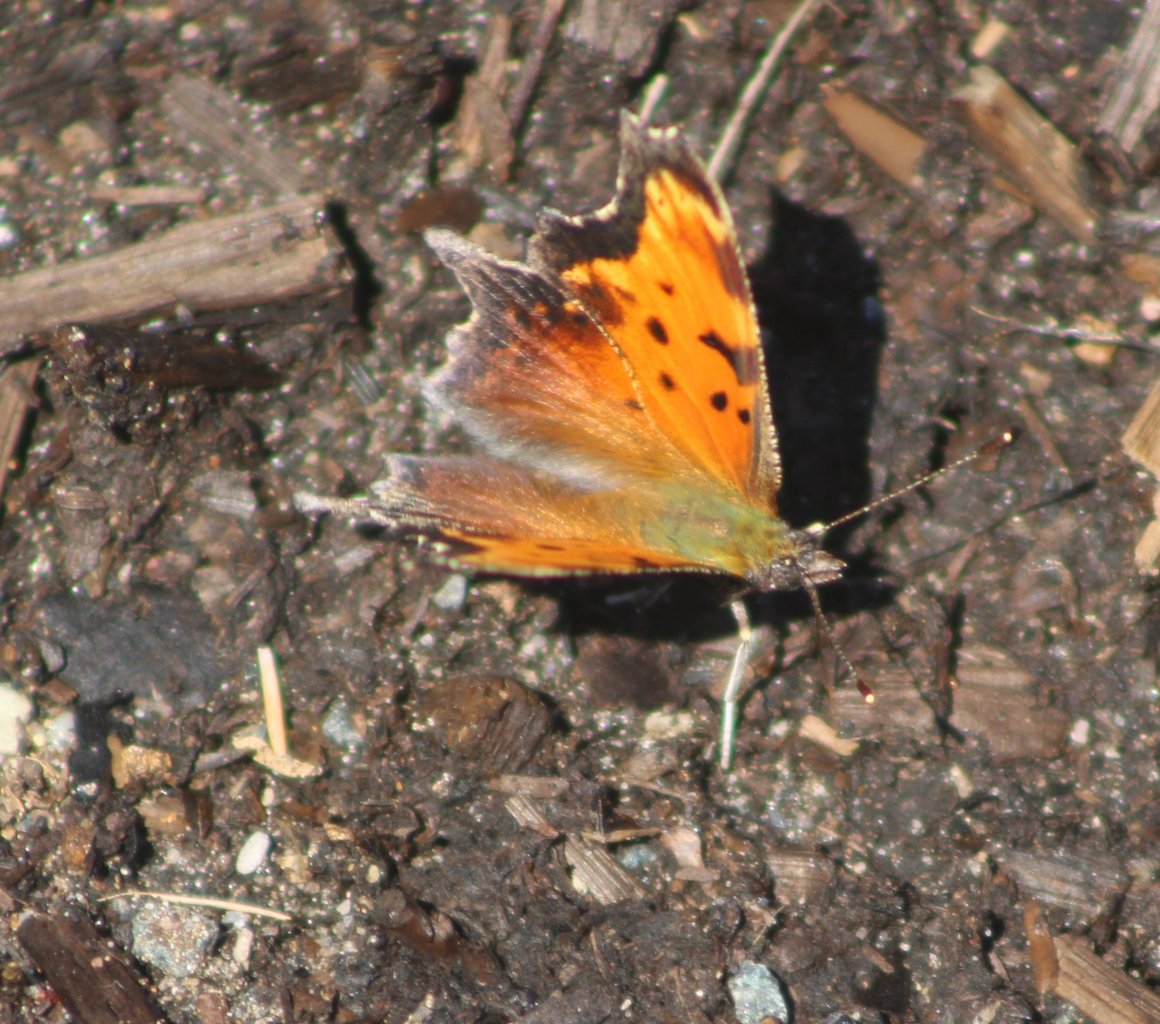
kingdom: Animalia
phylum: Arthropoda
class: Insecta
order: Lepidoptera
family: Nymphalidae
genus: Polygonia
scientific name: Polygonia progne
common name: Gray Comma
